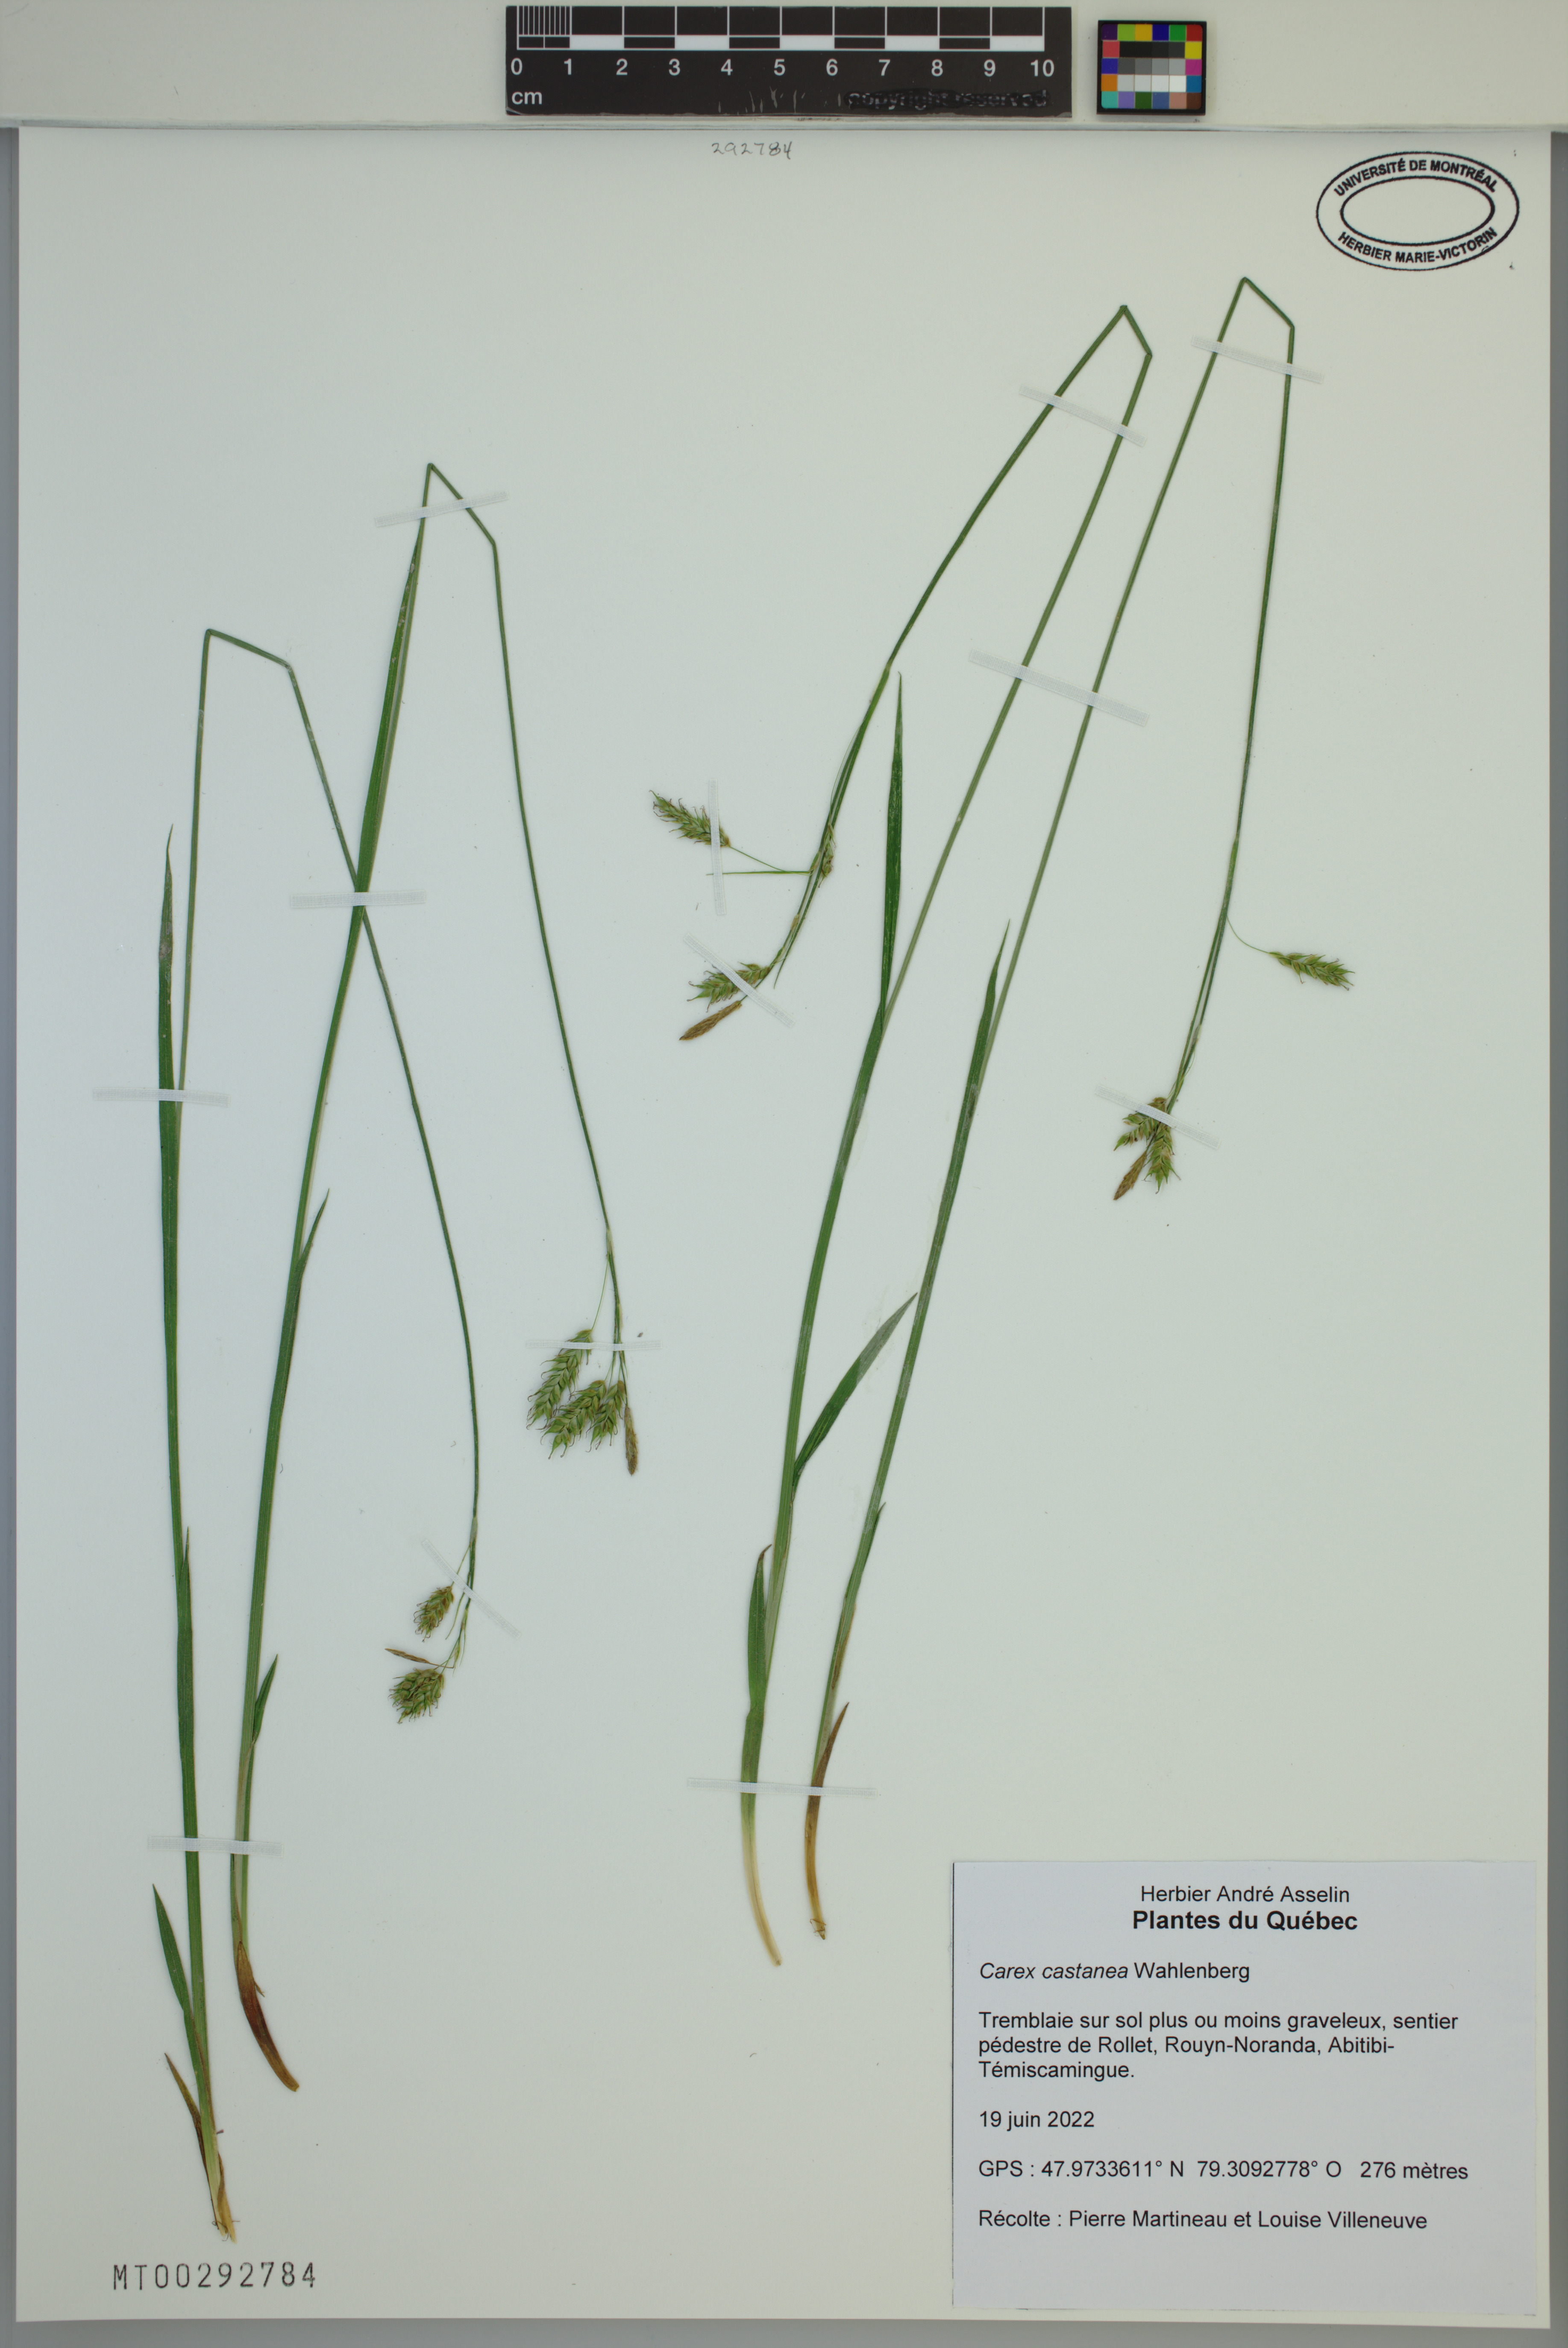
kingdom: Plantae
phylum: Tracheophyta
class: Liliopsida
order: Poales
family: Cyperaceae
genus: Carex
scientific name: Carex castanea
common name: Chestnut sedge
